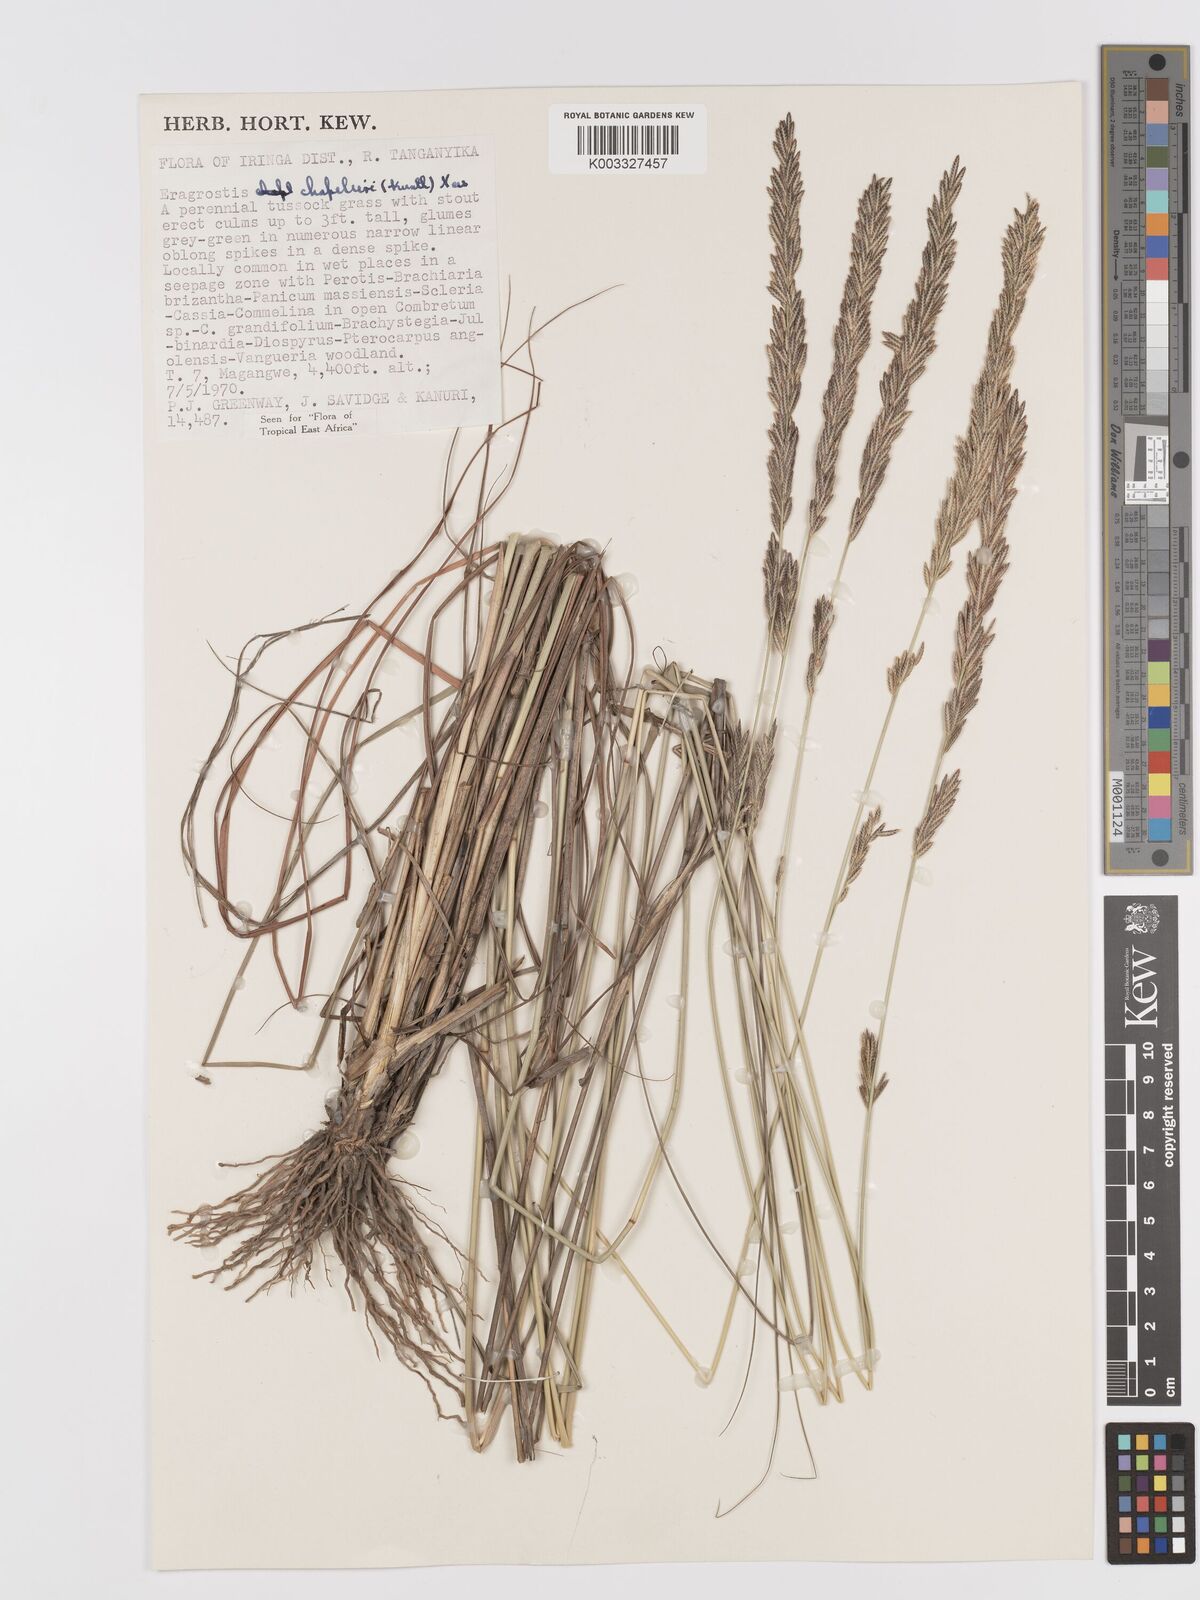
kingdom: Plantae
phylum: Tracheophyta
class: Liliopsida
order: Poales
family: Poaceae
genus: Eragrostis
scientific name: Eragrostis chapelieri
